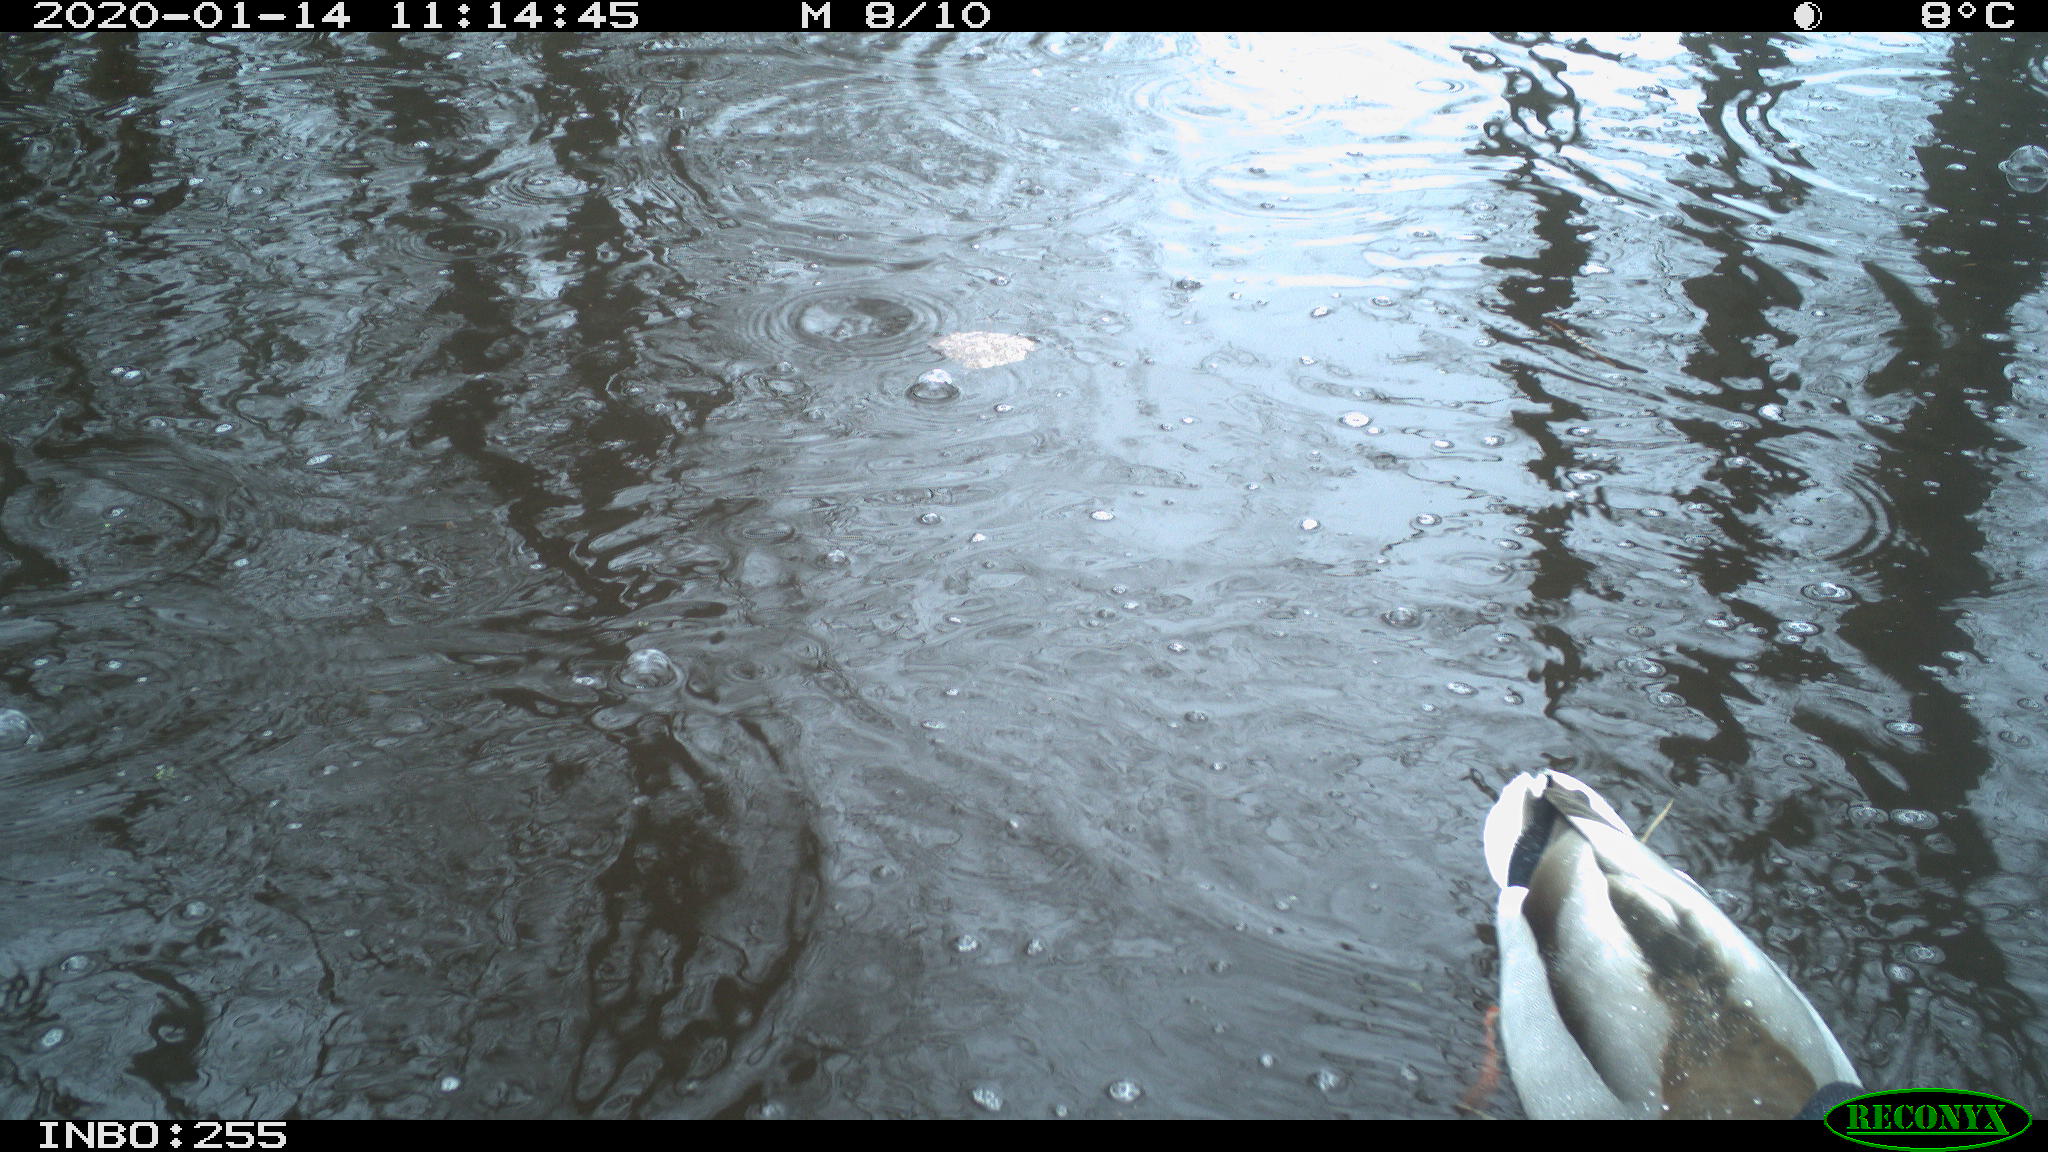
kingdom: Animalia
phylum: Chordata
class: Aves
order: Anseriformes
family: Anatidae
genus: Anas
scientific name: Anas platyrhynchos
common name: Mallard
